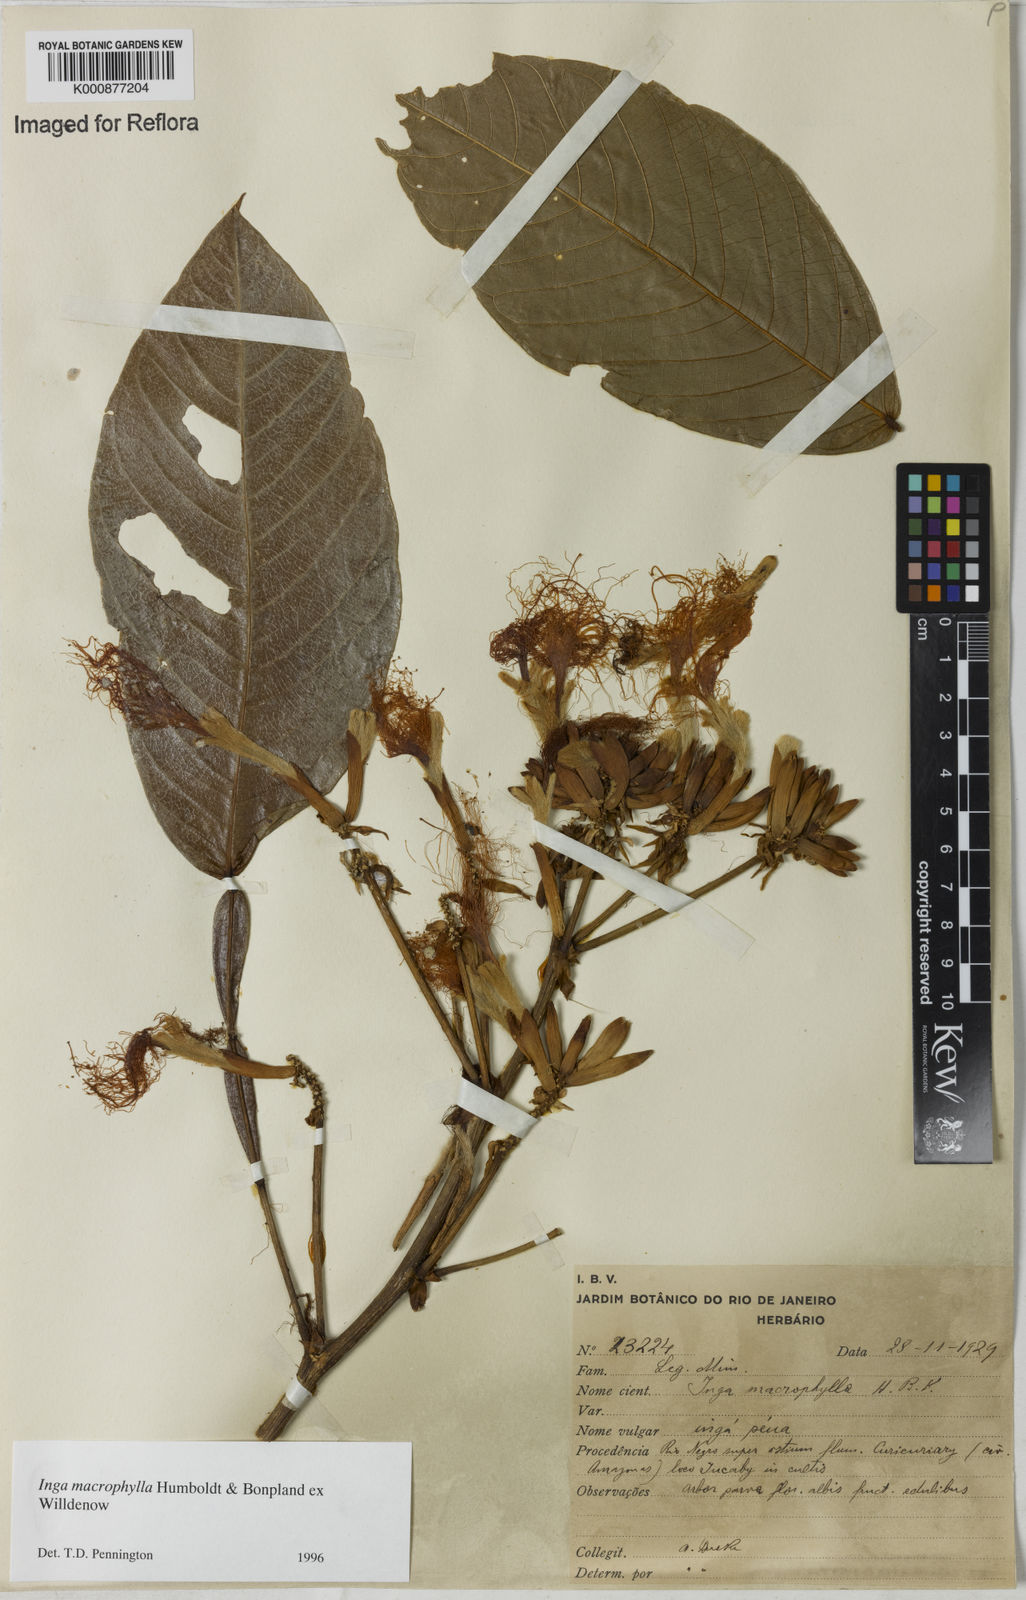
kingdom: Plantae
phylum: Tracheophyta
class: Magnoliopsida
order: Fabales
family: Fabaceae
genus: Inga
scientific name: Inga macrophylla
